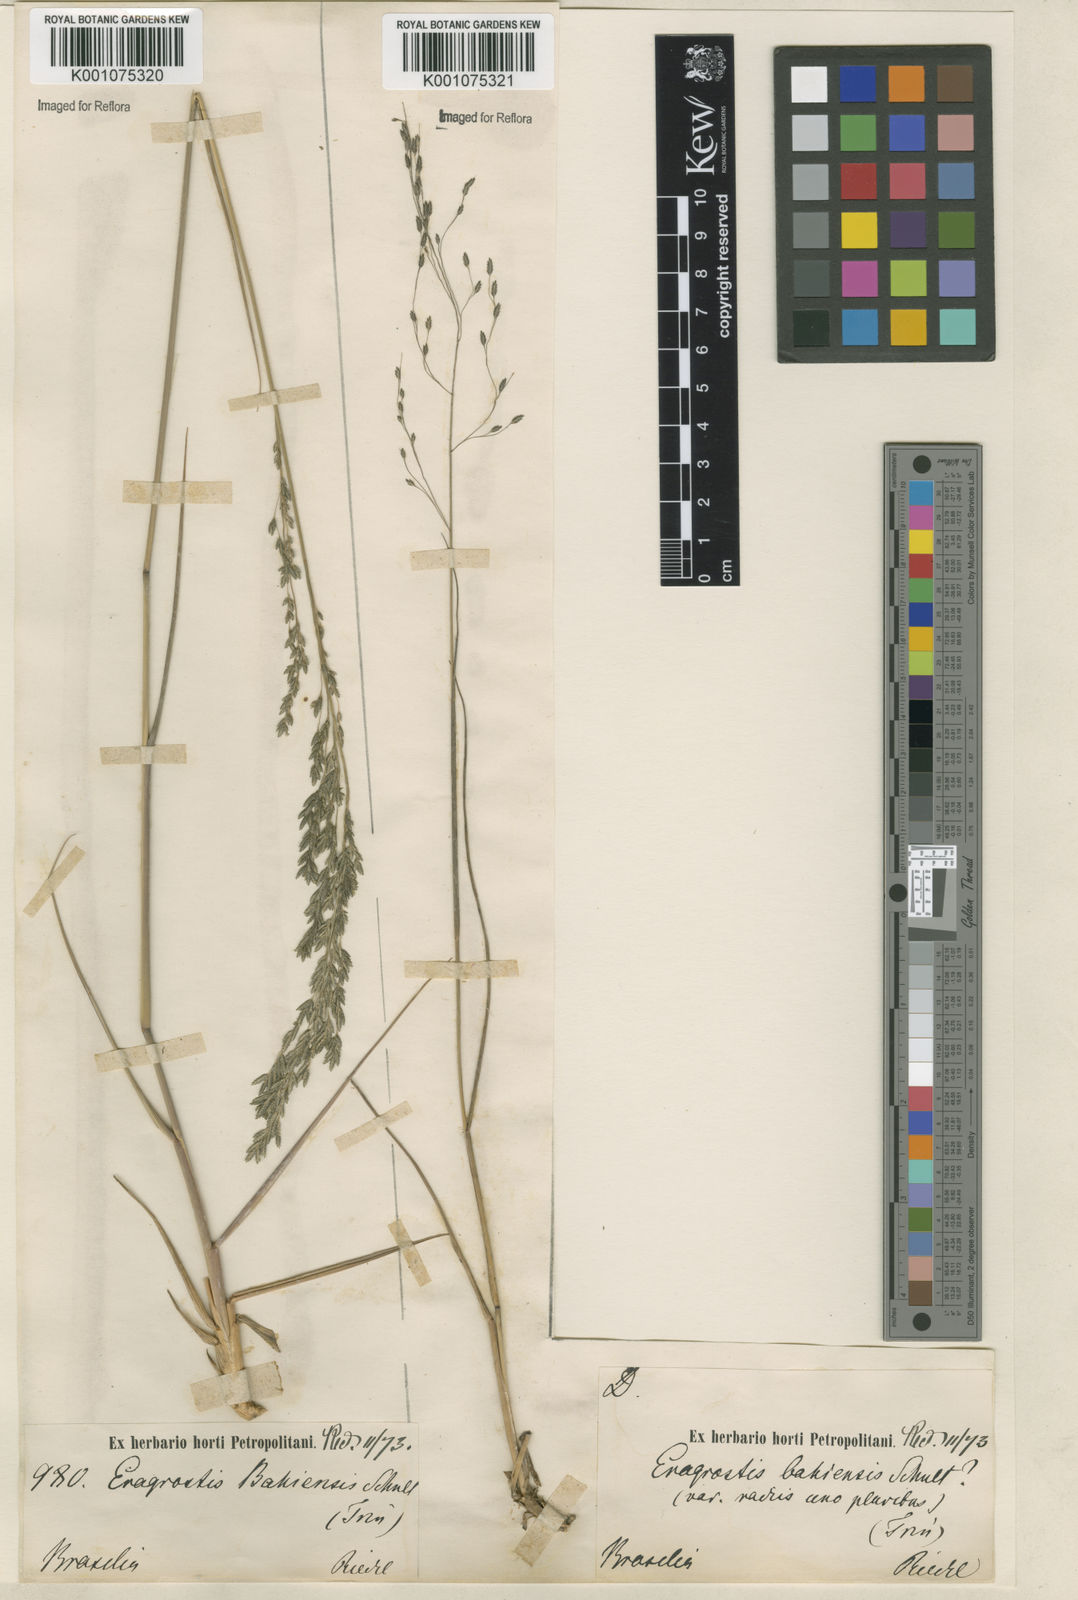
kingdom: Plantae
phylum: Tracheophyta
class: Liliopsida
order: Poales
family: Poaceae
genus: Eragrostis
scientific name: Eragrostis bahiensis
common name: Bahia lovegrass
